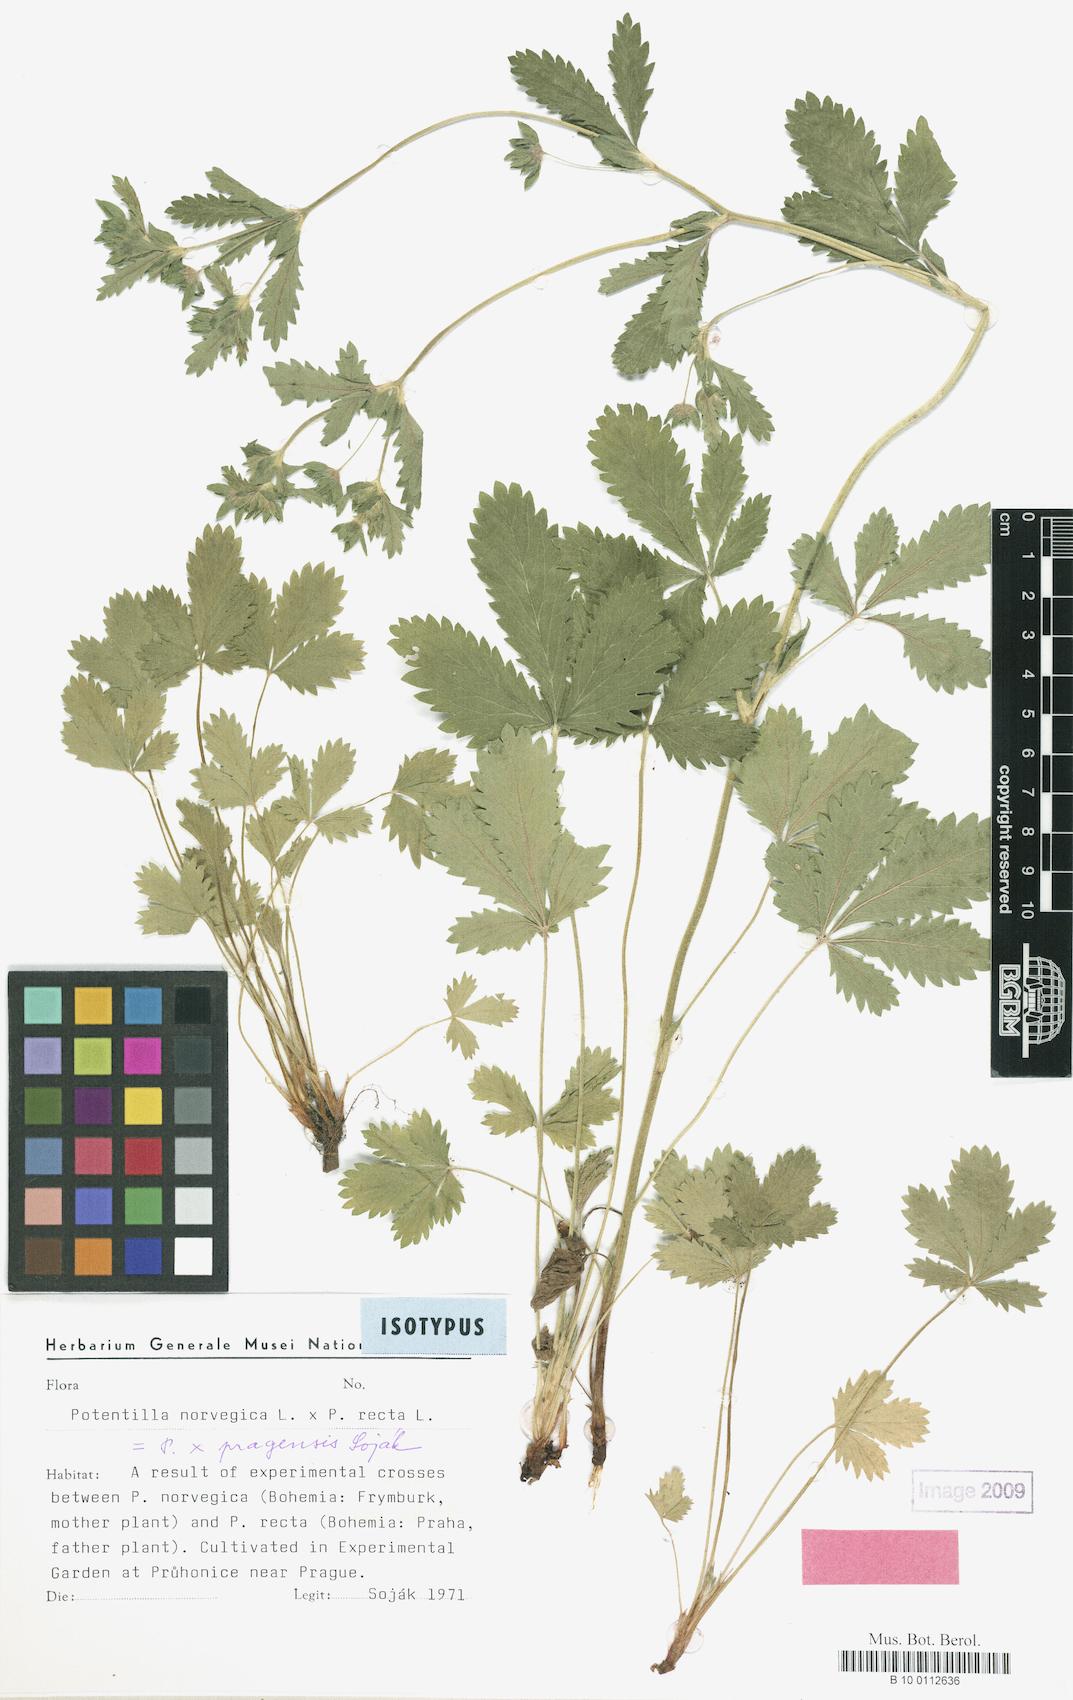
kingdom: Plantae
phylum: Tracheophyta
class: Magnoliopsida
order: Rosales
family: Rosaceae
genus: Potentilla
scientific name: Potentilla
